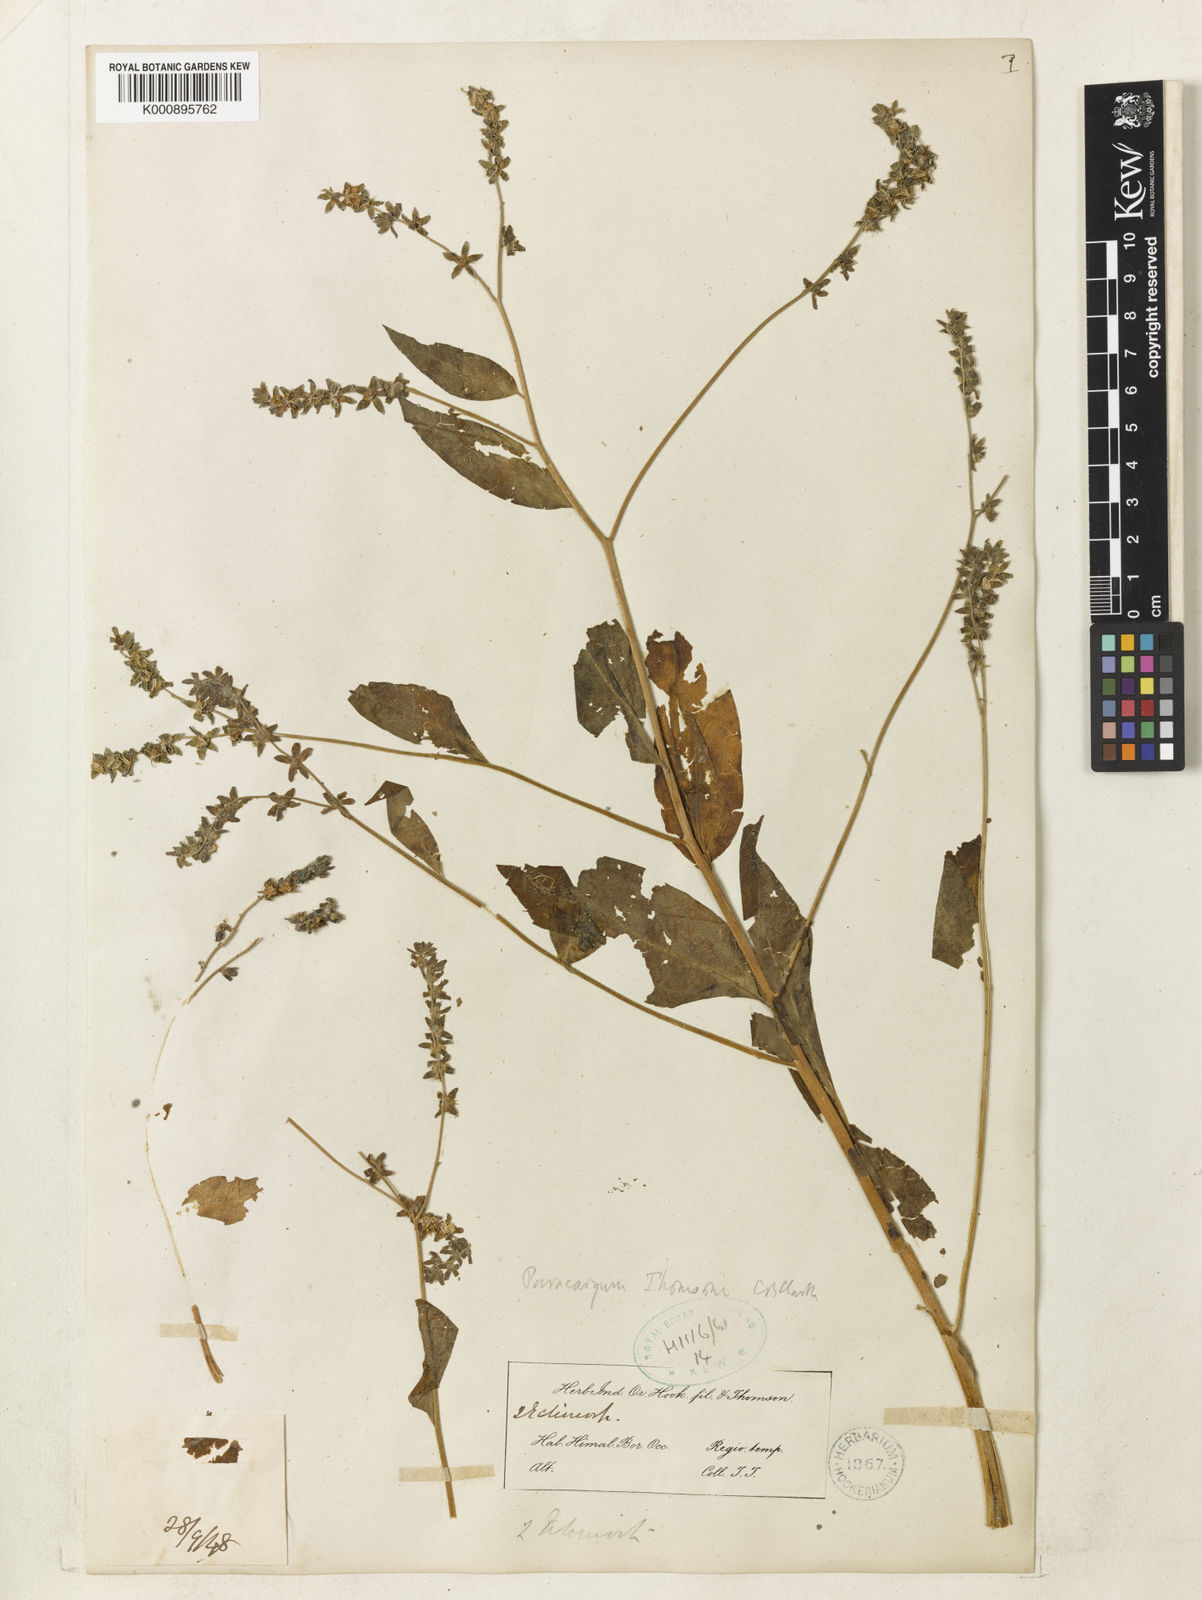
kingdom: Plantae
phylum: Tracheophyta
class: Magnoliopsida
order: Boraginales
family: Boraginaceae
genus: Paracaryum
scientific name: Paracaryum thomsonii
